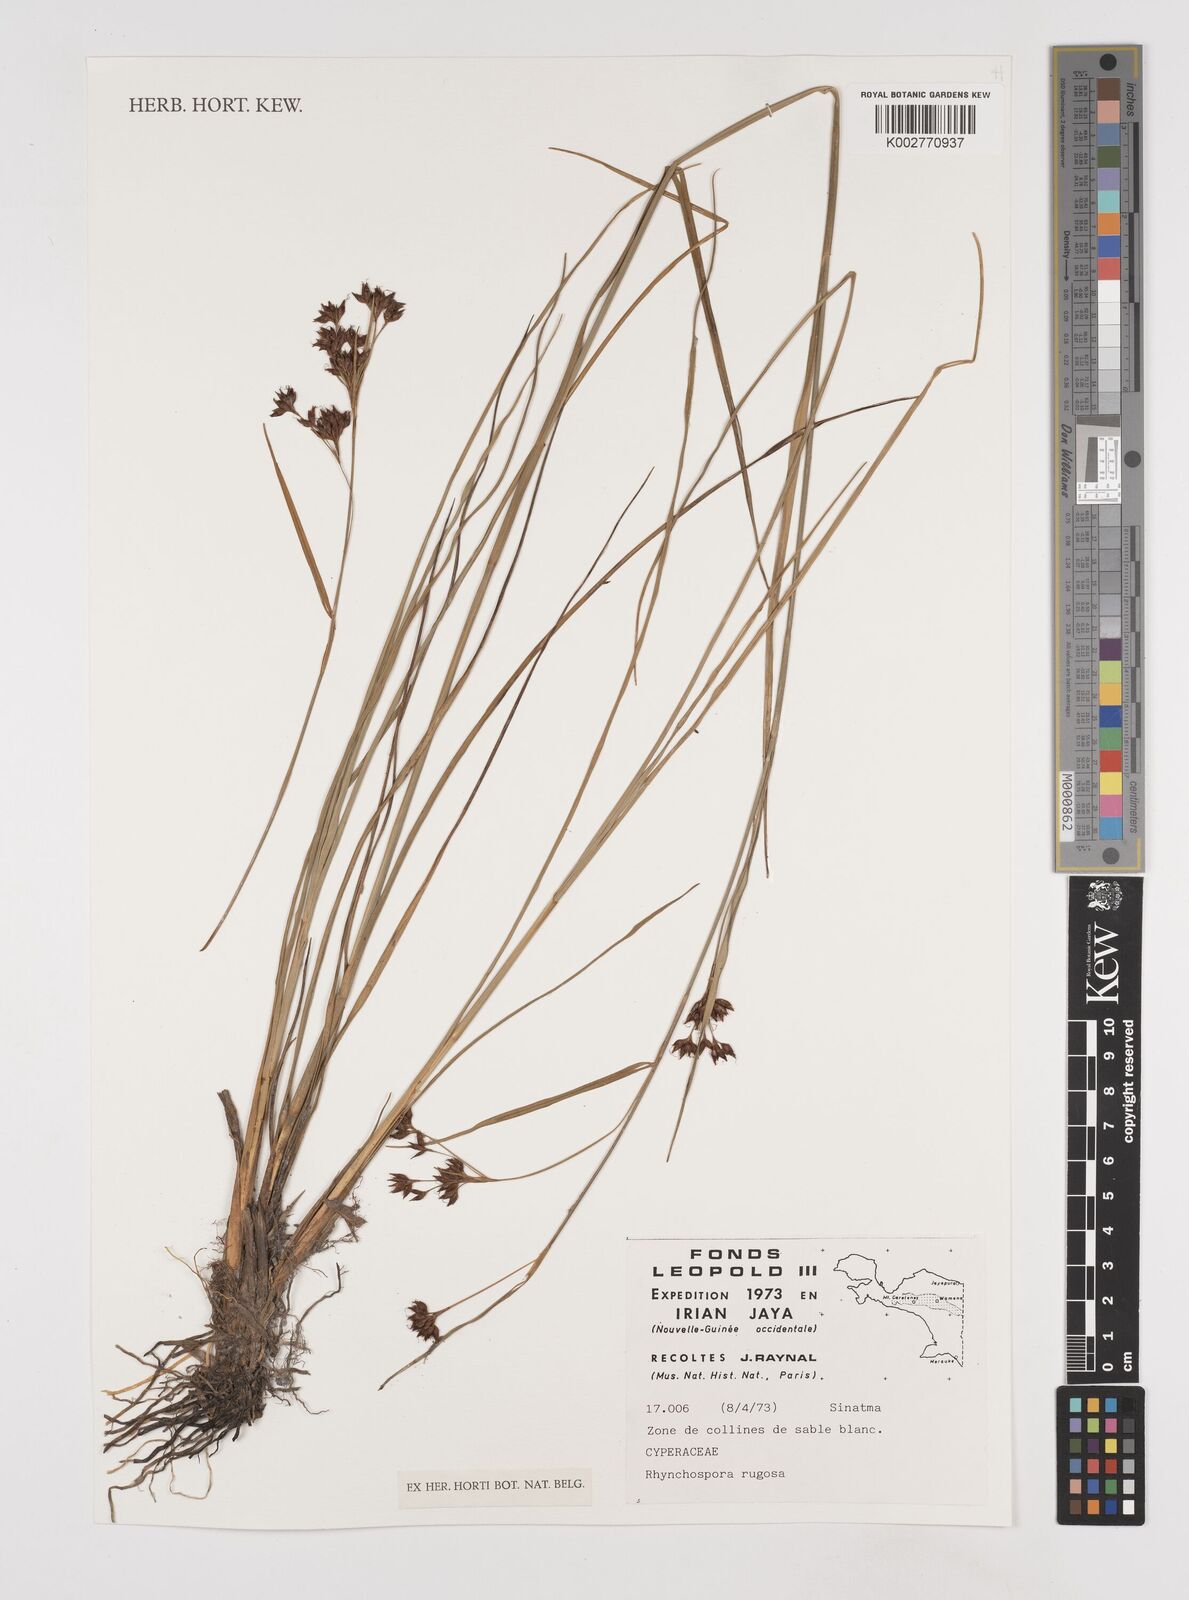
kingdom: Plantae
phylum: Tracheophyta
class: Liliopsida
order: Poales
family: Cyperaceae
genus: Rhynchospora
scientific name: Rhynchospora rugosa
